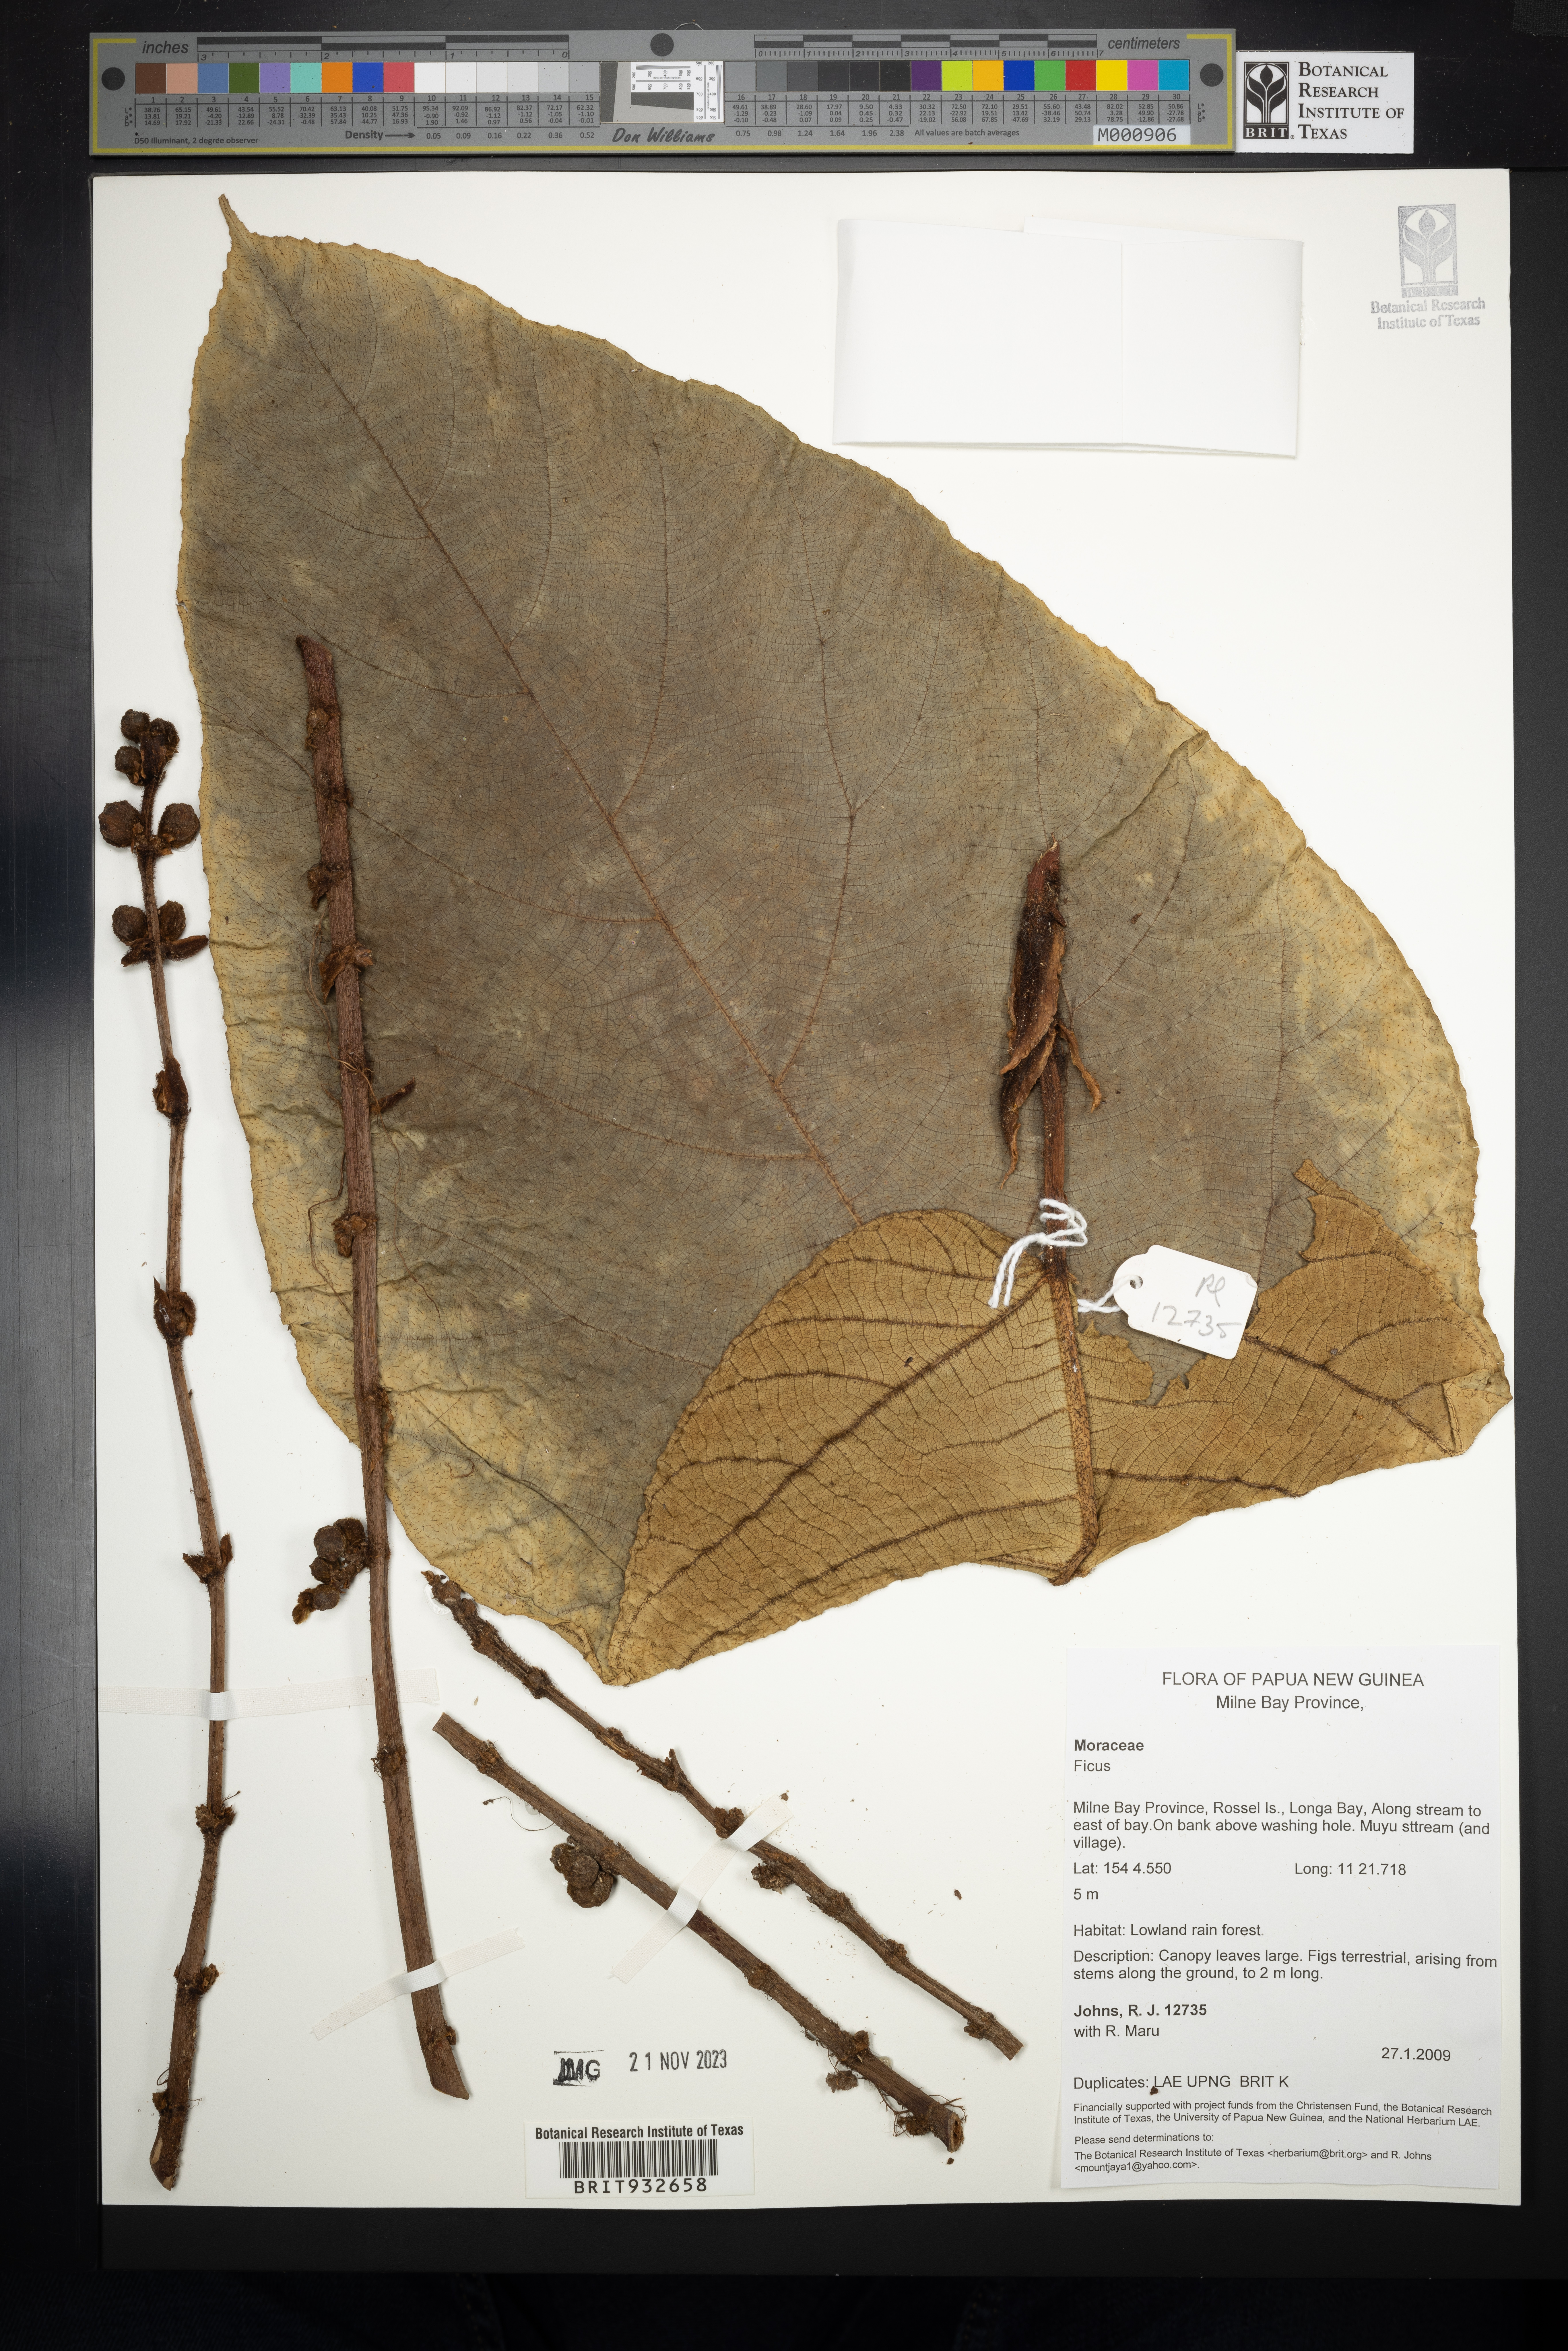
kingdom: Plantae
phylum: Tracheophyta
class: Magnoliopsida
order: Rosales
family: Moraceae
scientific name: Moraceae
